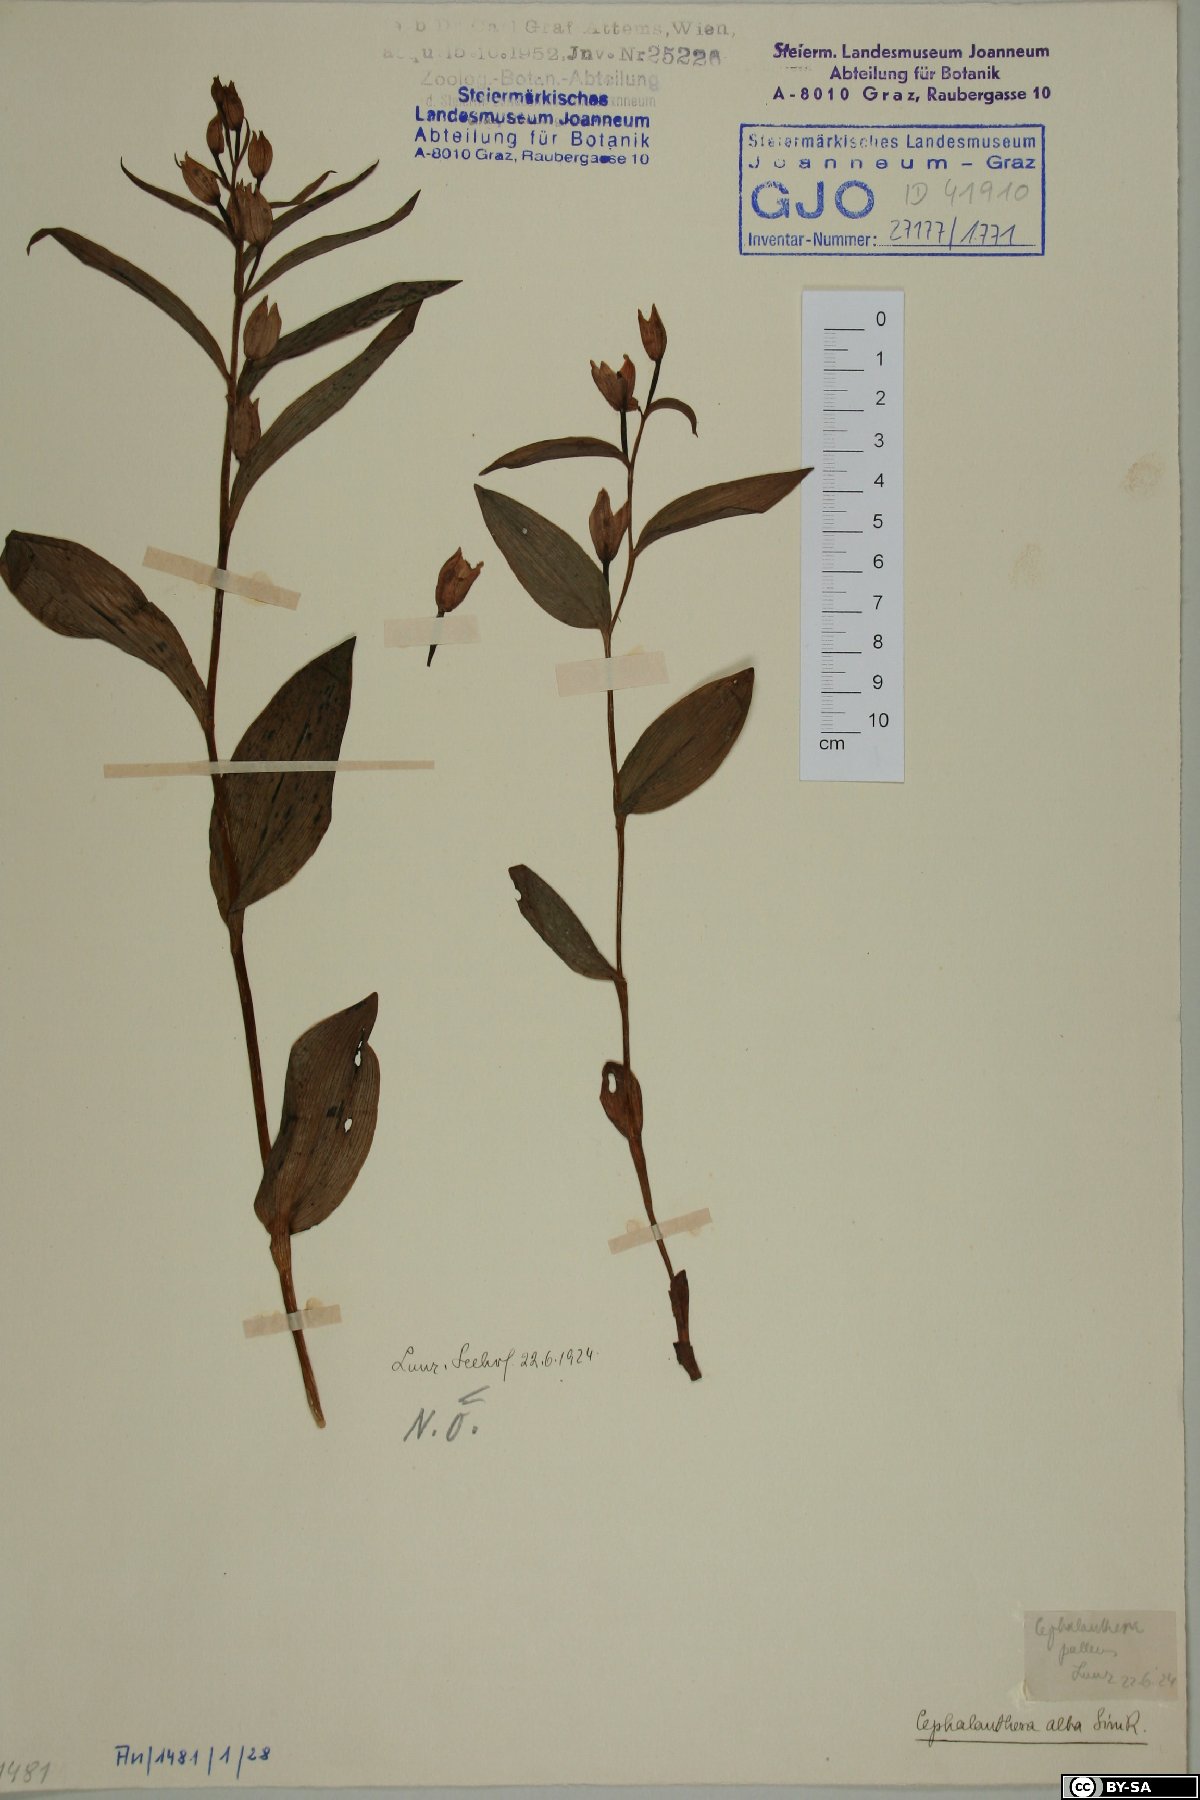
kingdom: Plantae
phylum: Tracheophyta
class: Liliopsida
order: Asparagales
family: Orchidaceae
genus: Cephalanthera
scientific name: Cephalanthera damasonium
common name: White helleborine
